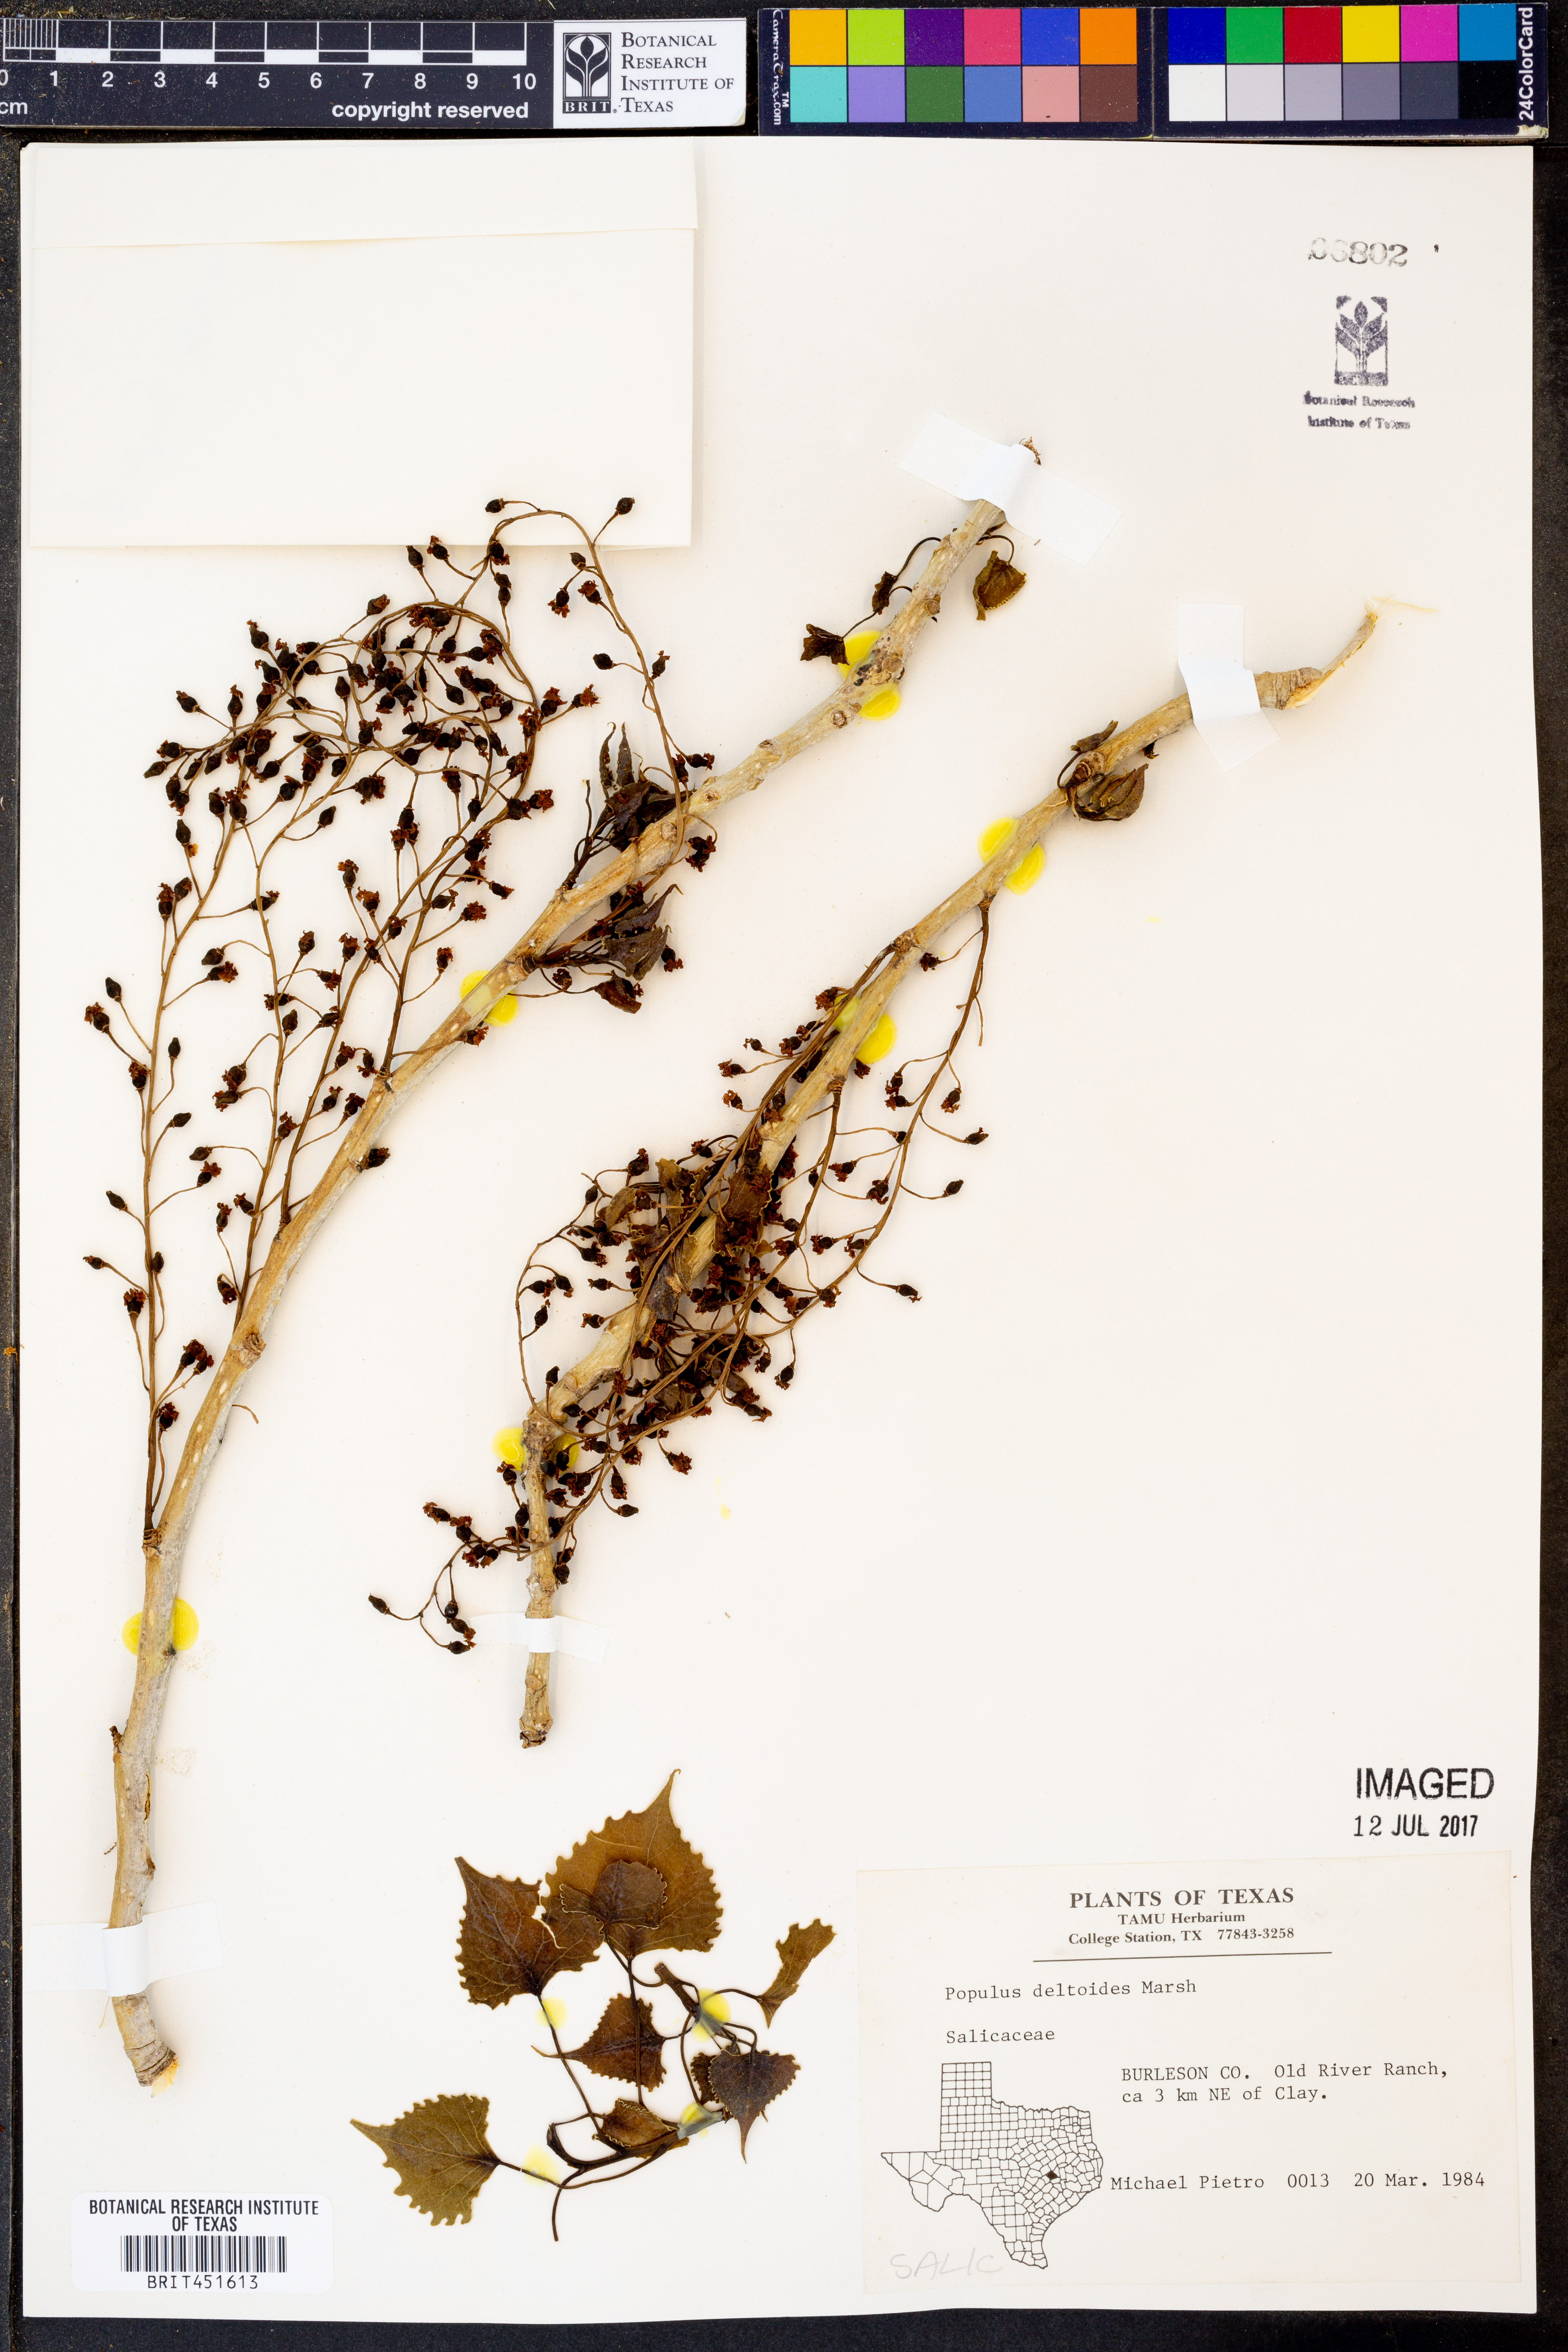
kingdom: Plantae
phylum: Tracheophyta
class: Magnoliopsida
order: Malpighiales
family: Salicaceae
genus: Populus
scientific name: Populus deltoides
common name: Eastern cottonwood
